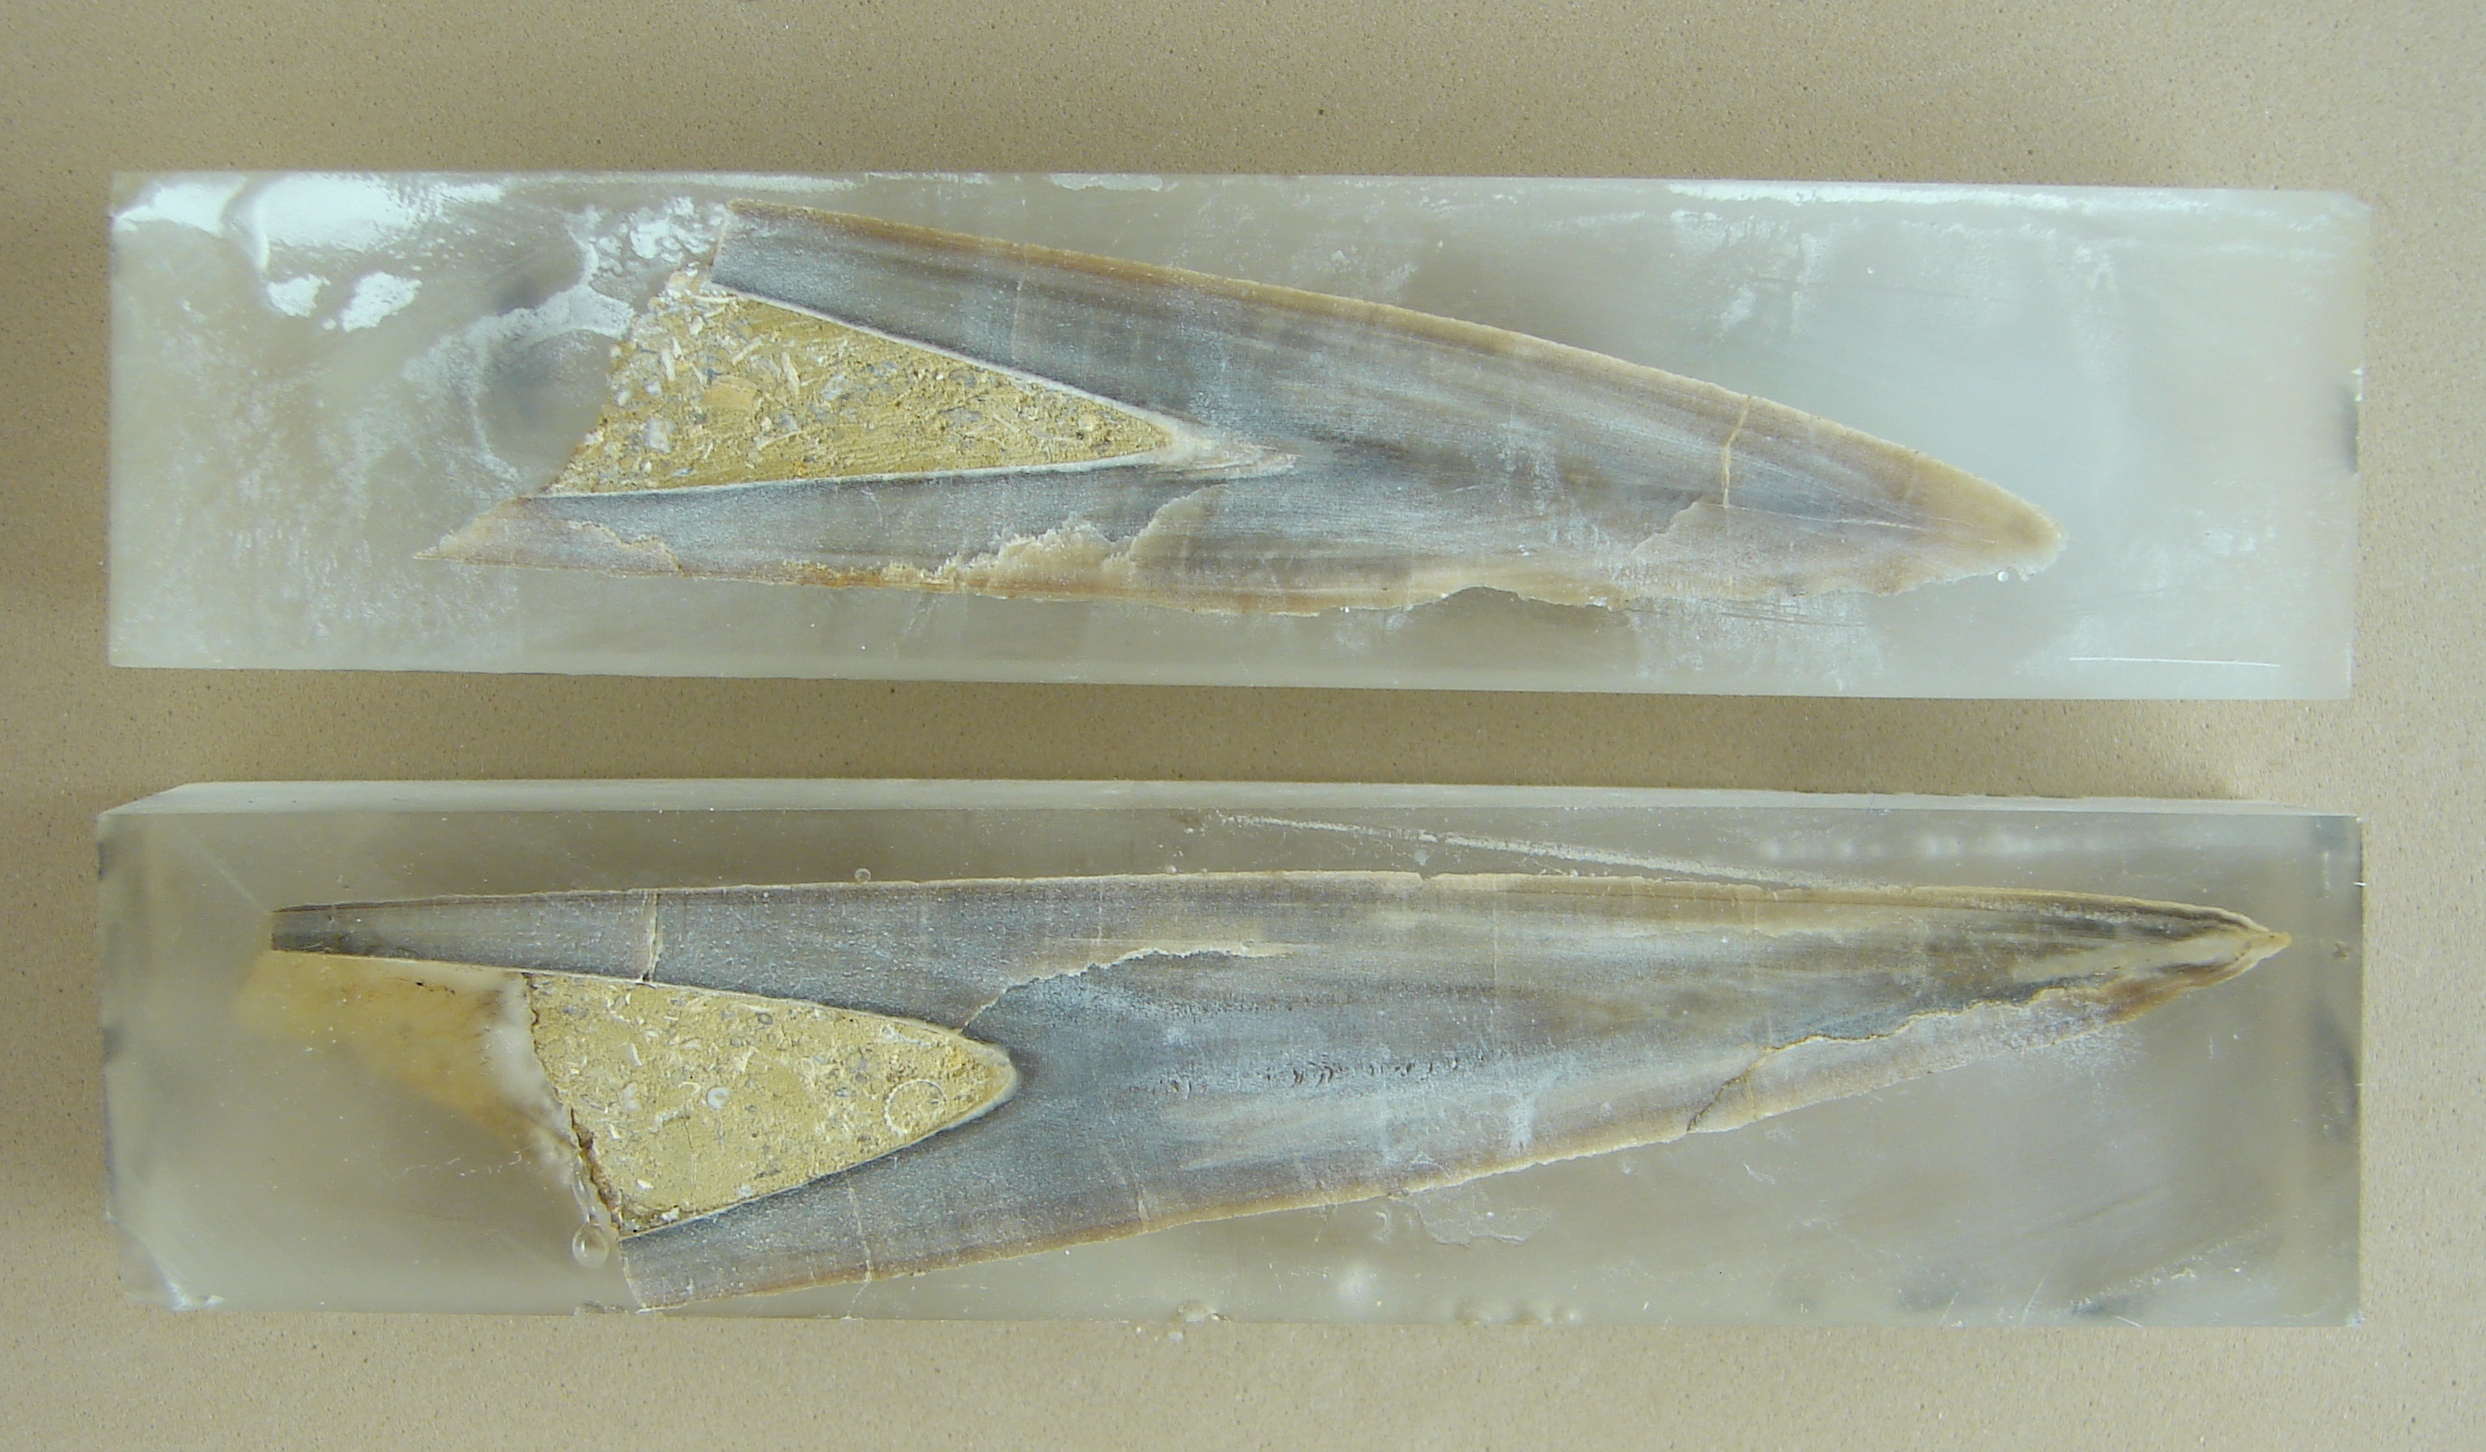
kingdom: Animalia
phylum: Mollusca
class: Cephalopoda
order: Belemnitida
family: Megateuthididae
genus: Megateuthis
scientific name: Megateuthis
